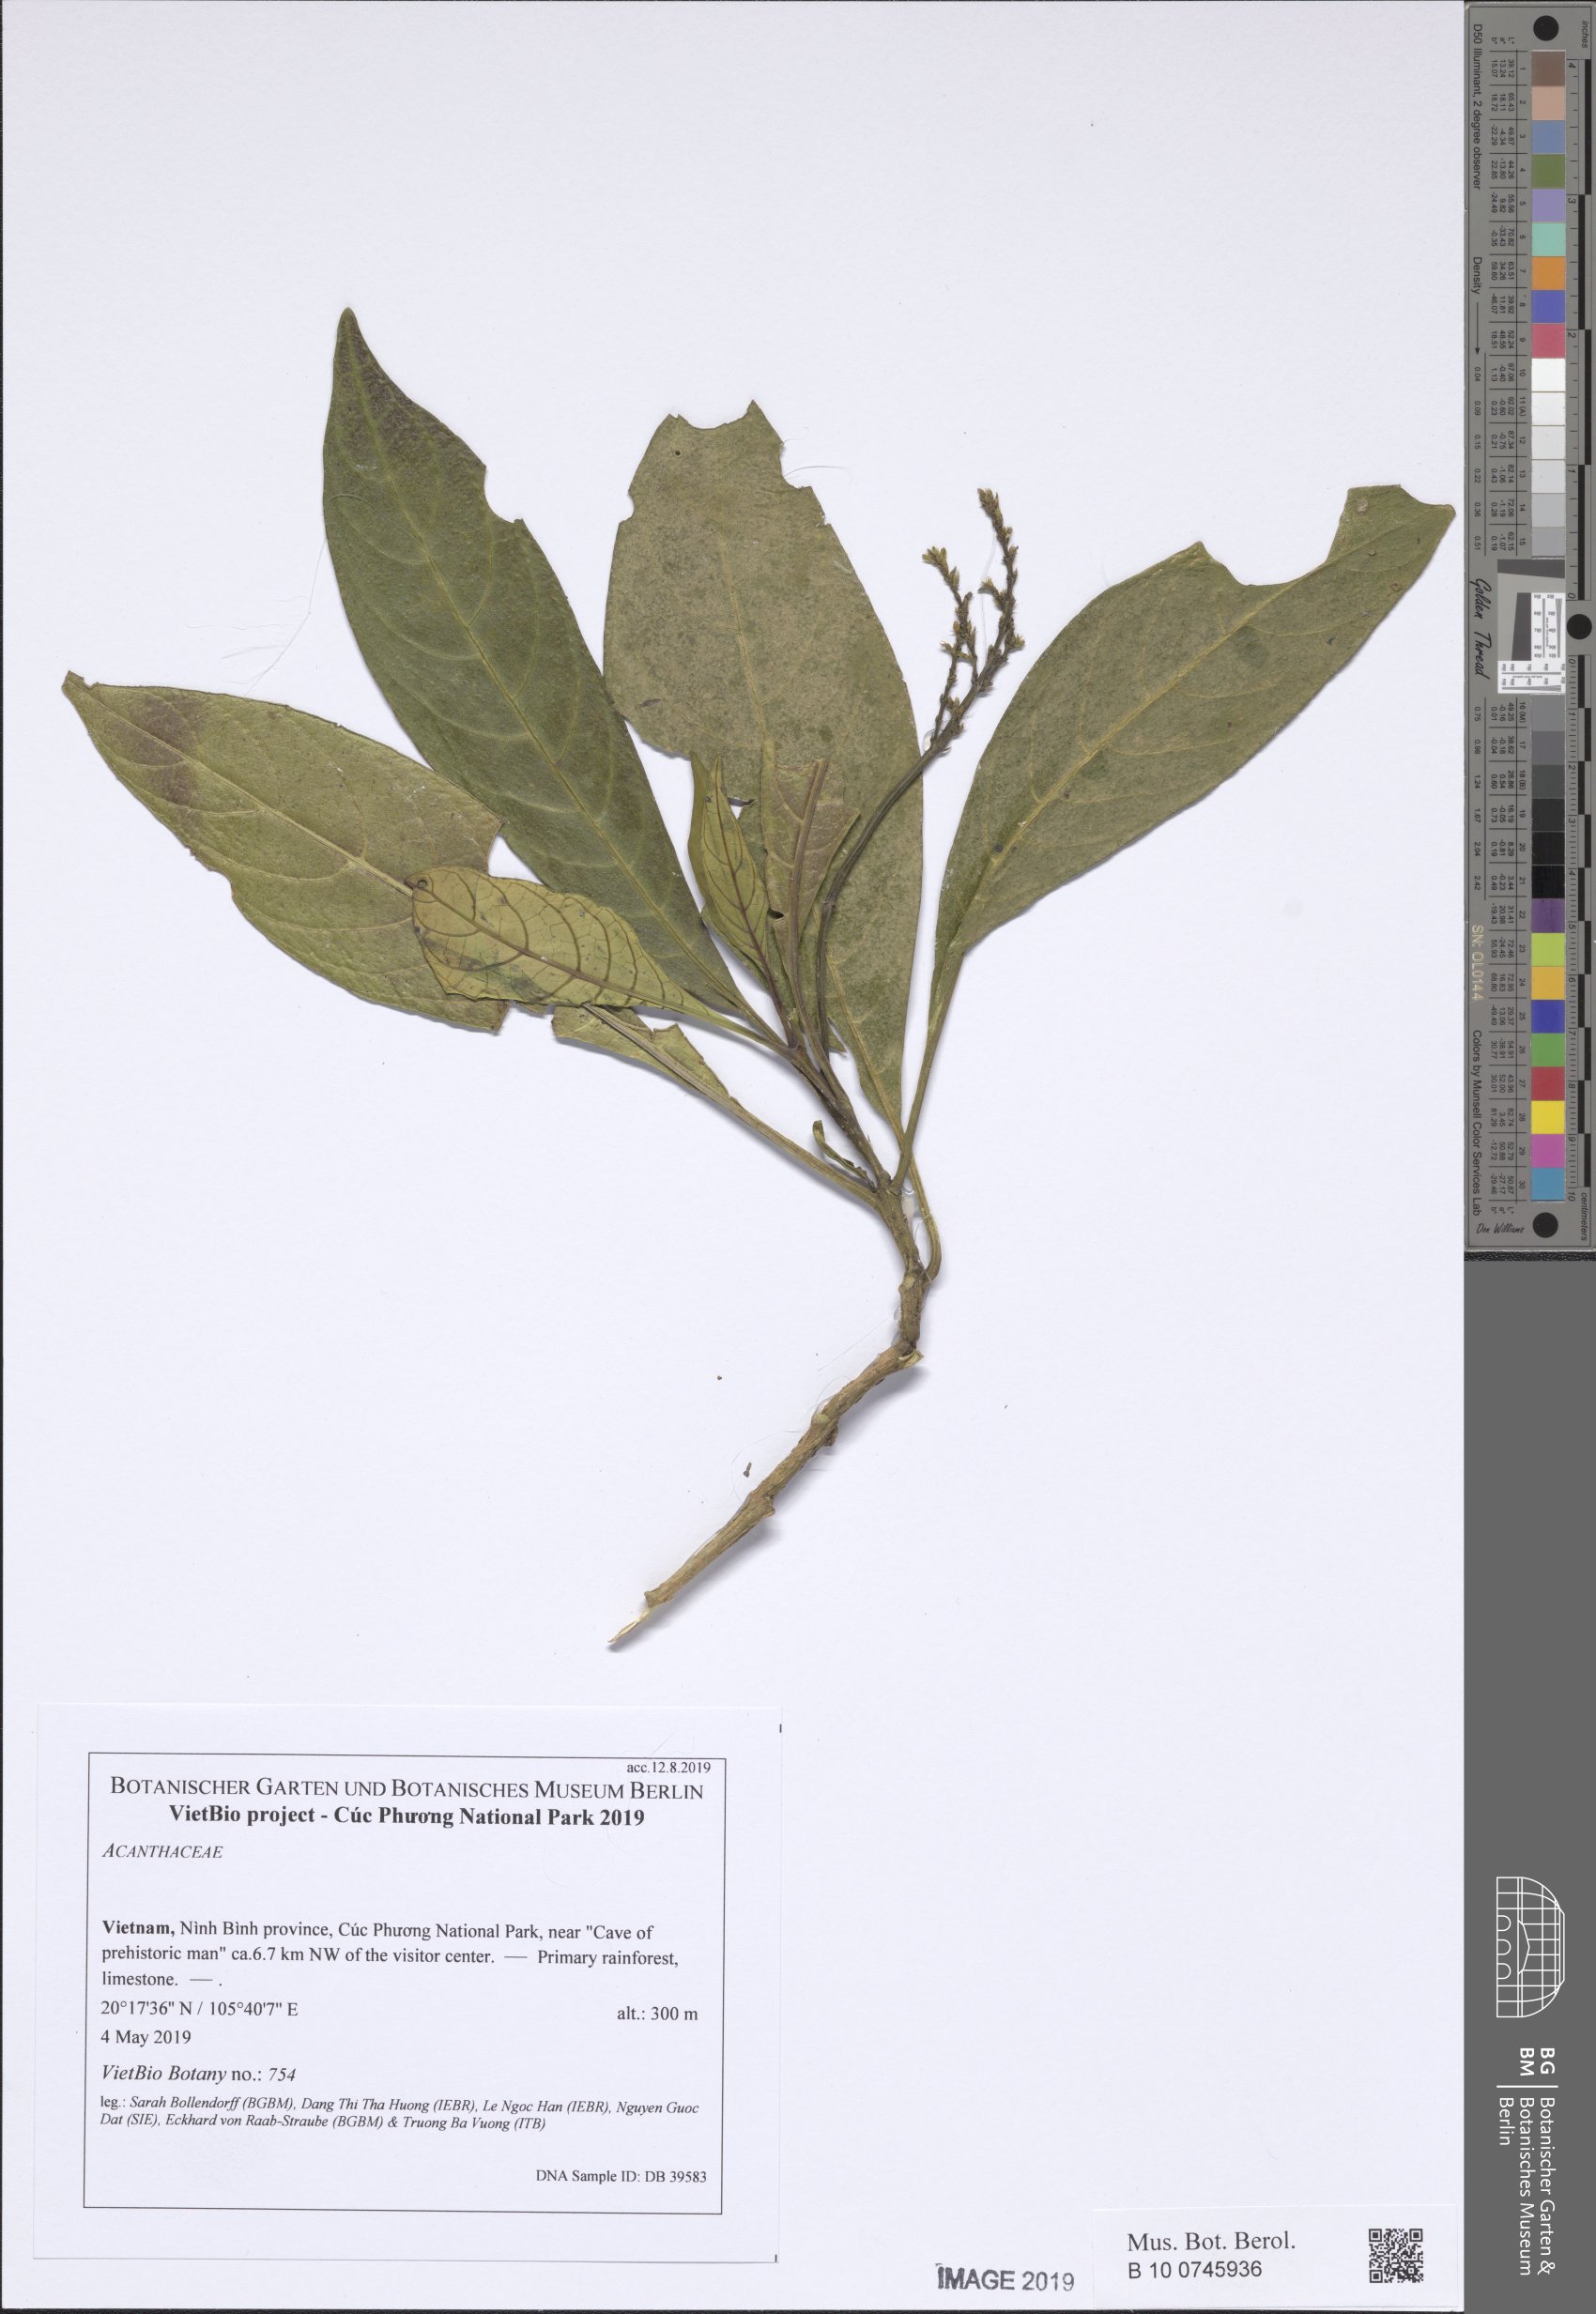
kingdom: Plantae
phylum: Tracheophyta
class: Magnoliopsida
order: Lamiales
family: Acanthaceae
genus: Justicia
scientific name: Justicia
